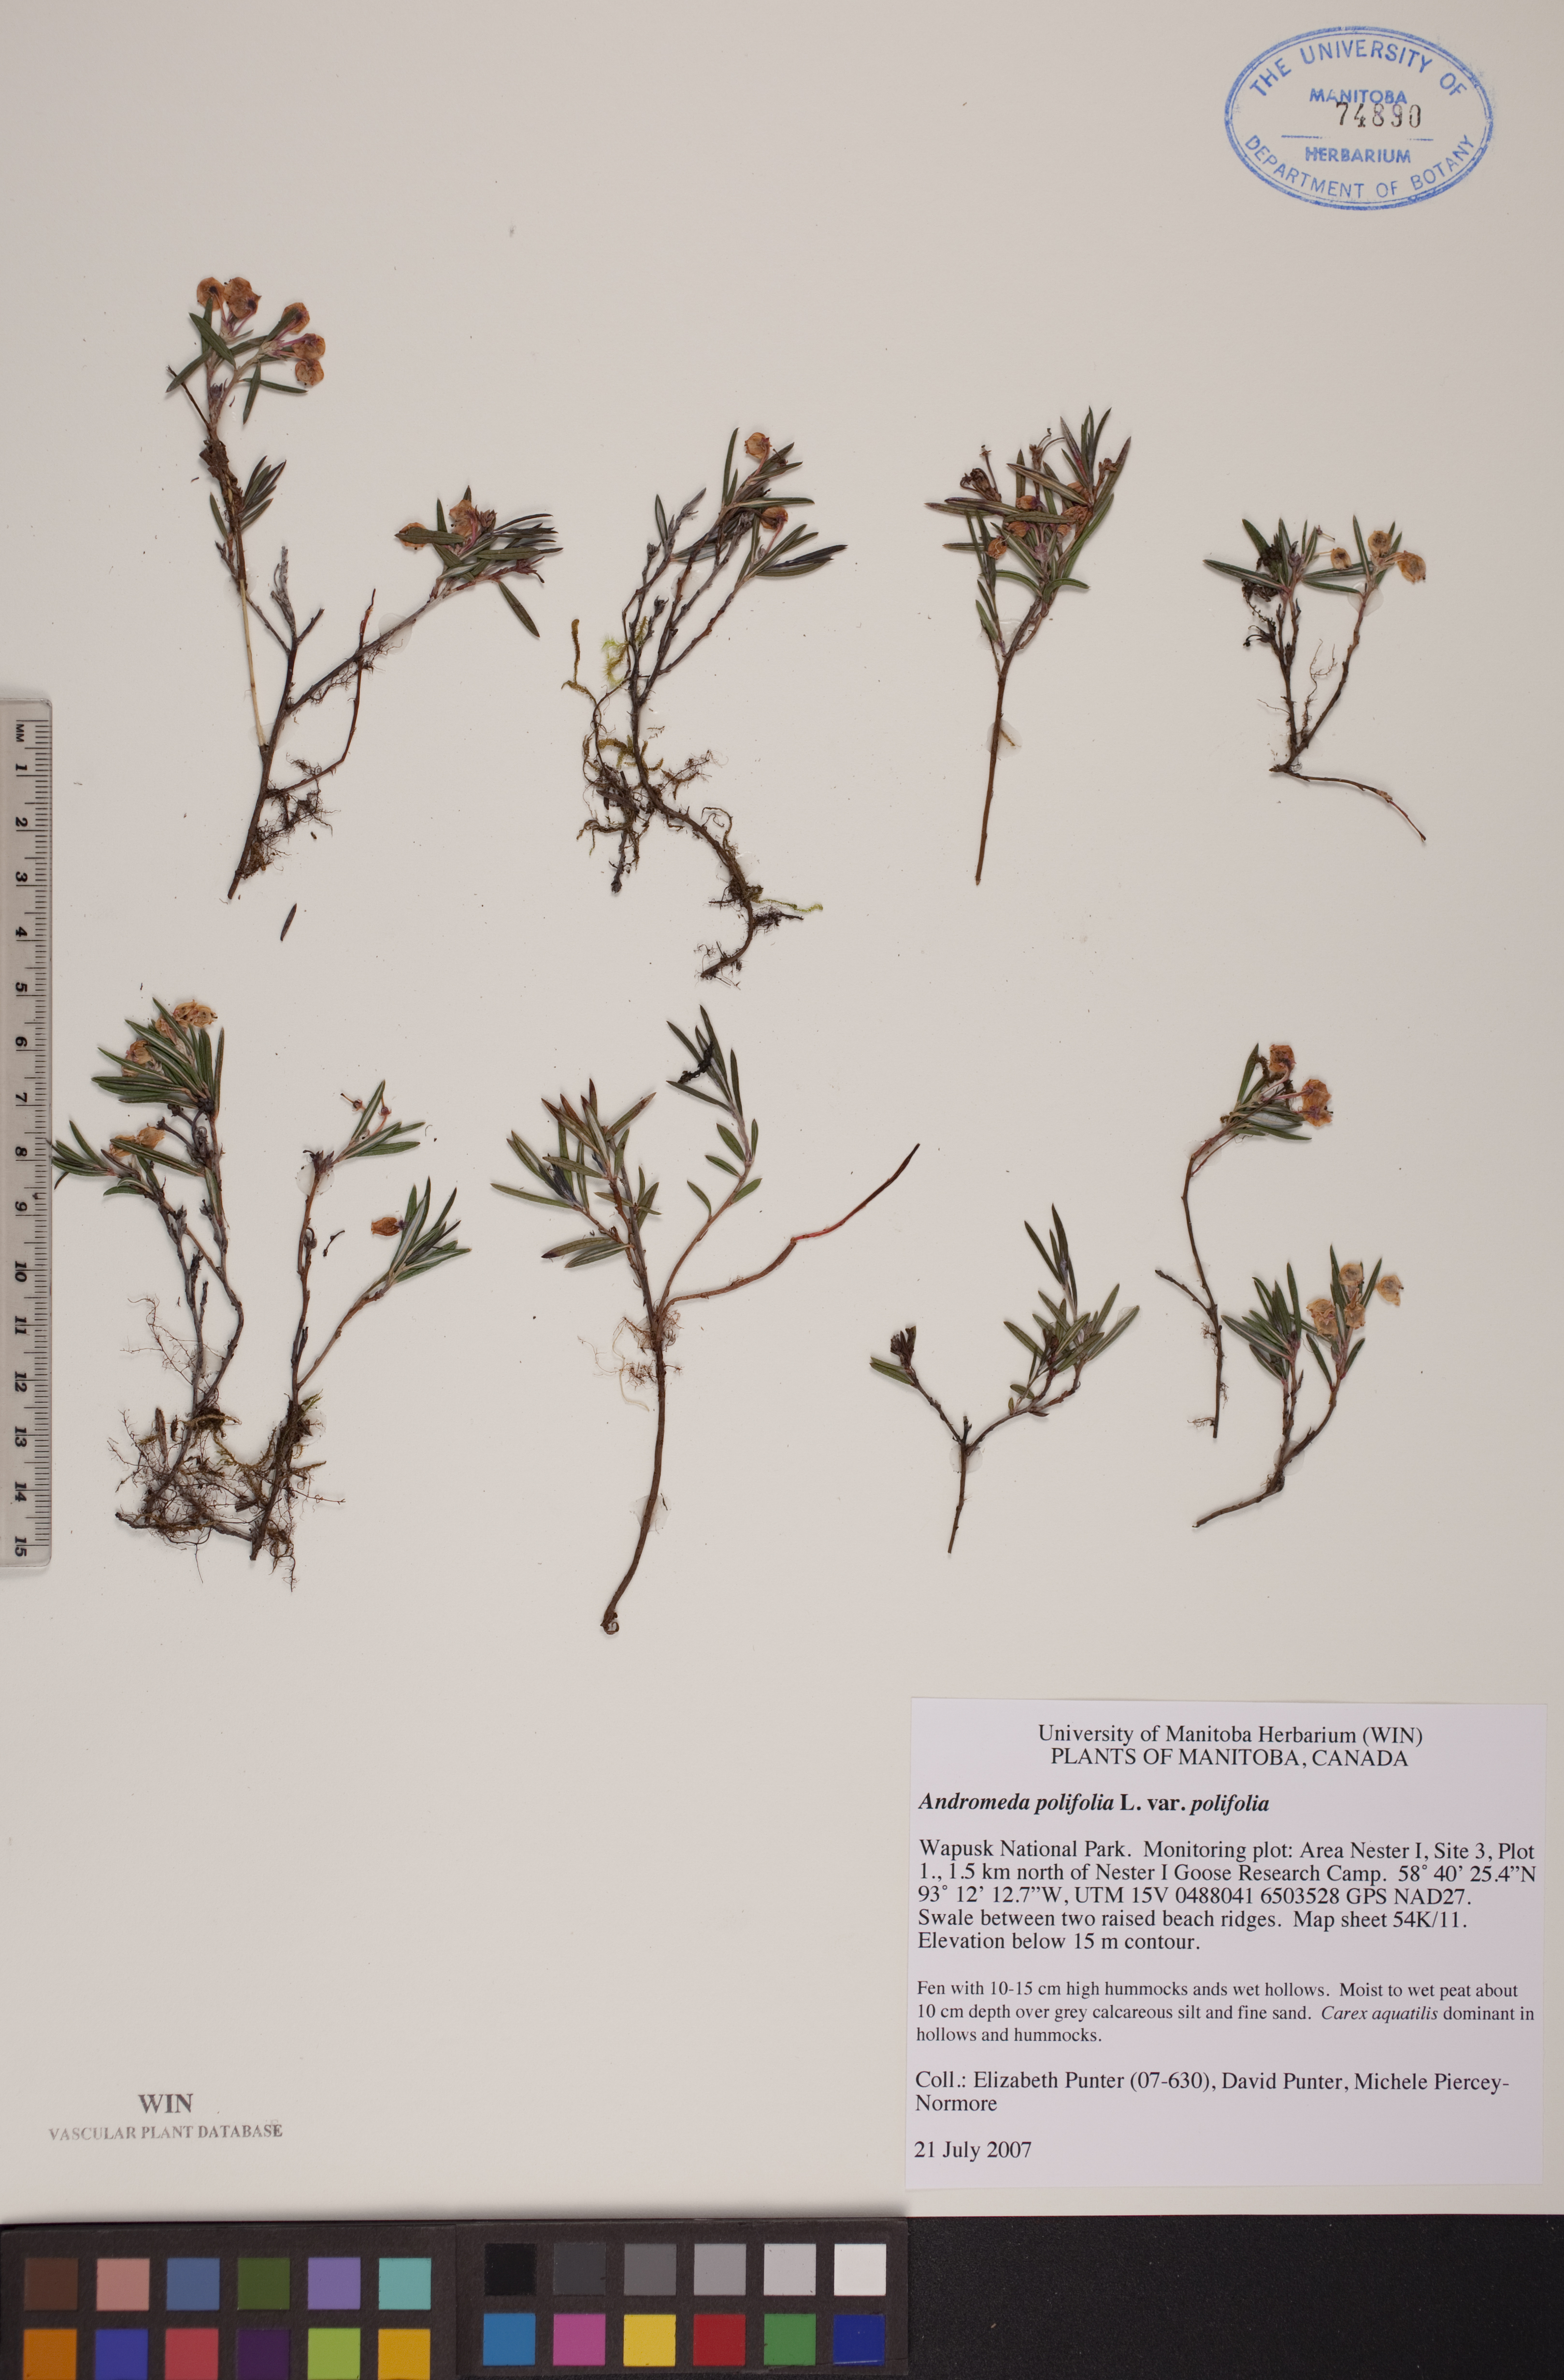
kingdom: Plantae
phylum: Tracheophyta
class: Magnoliopsida
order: Ericales
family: Ericaceae
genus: Andromeda
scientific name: Andromeda polifolia
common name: Bog-rosemary
